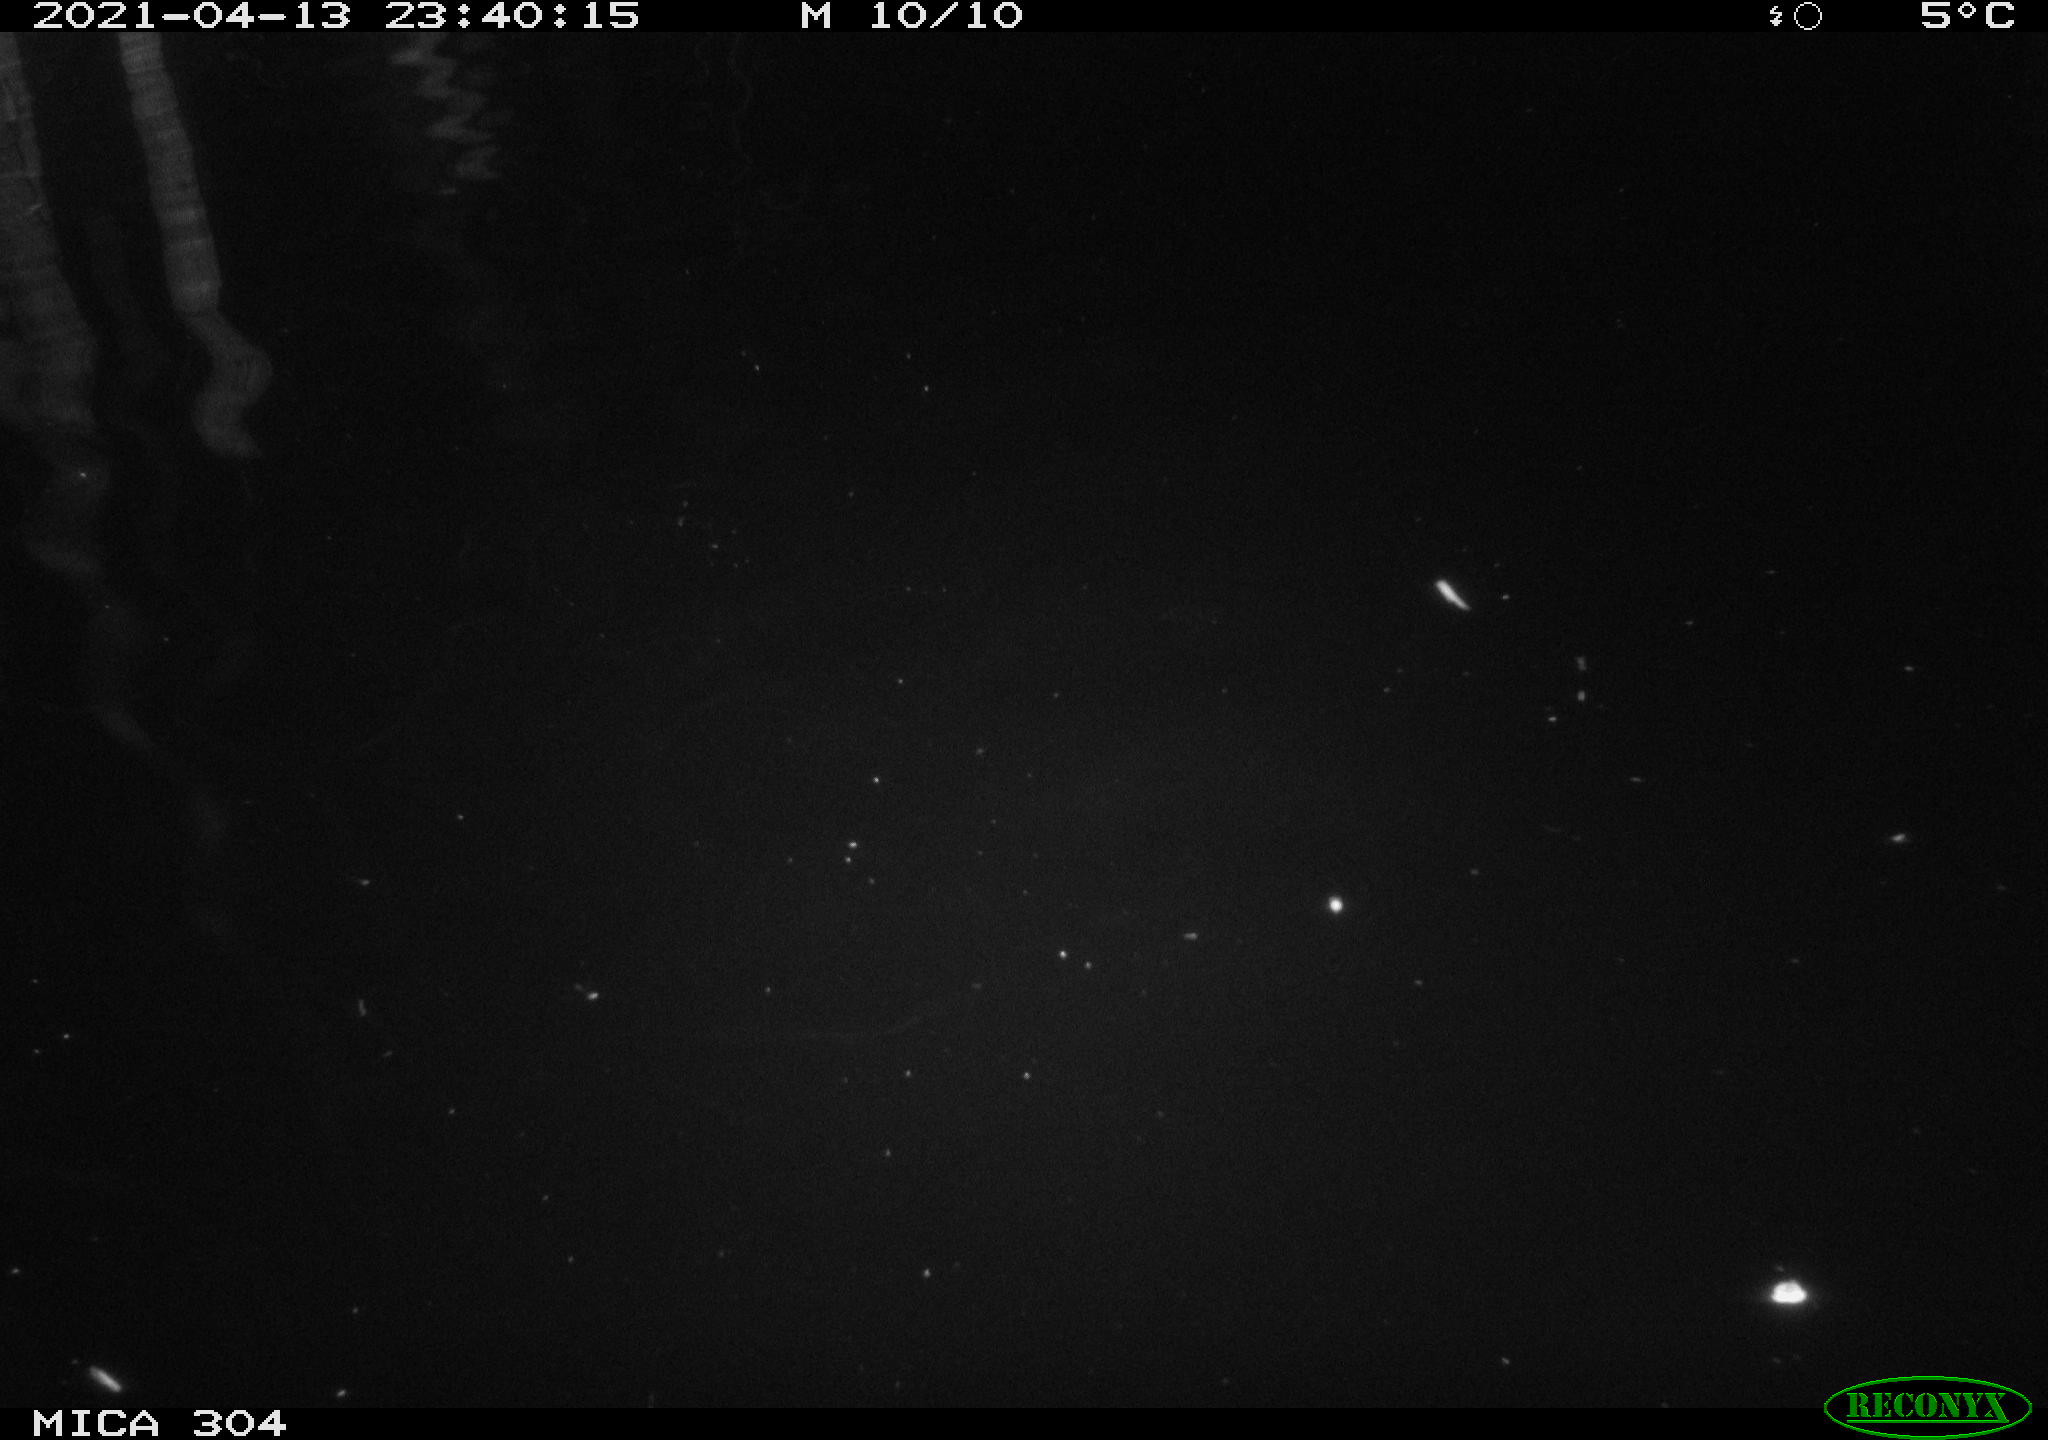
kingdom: Animalia
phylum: Chordata
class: Aves
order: Anseriformes
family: Anatidae
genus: Anas
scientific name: Anas
